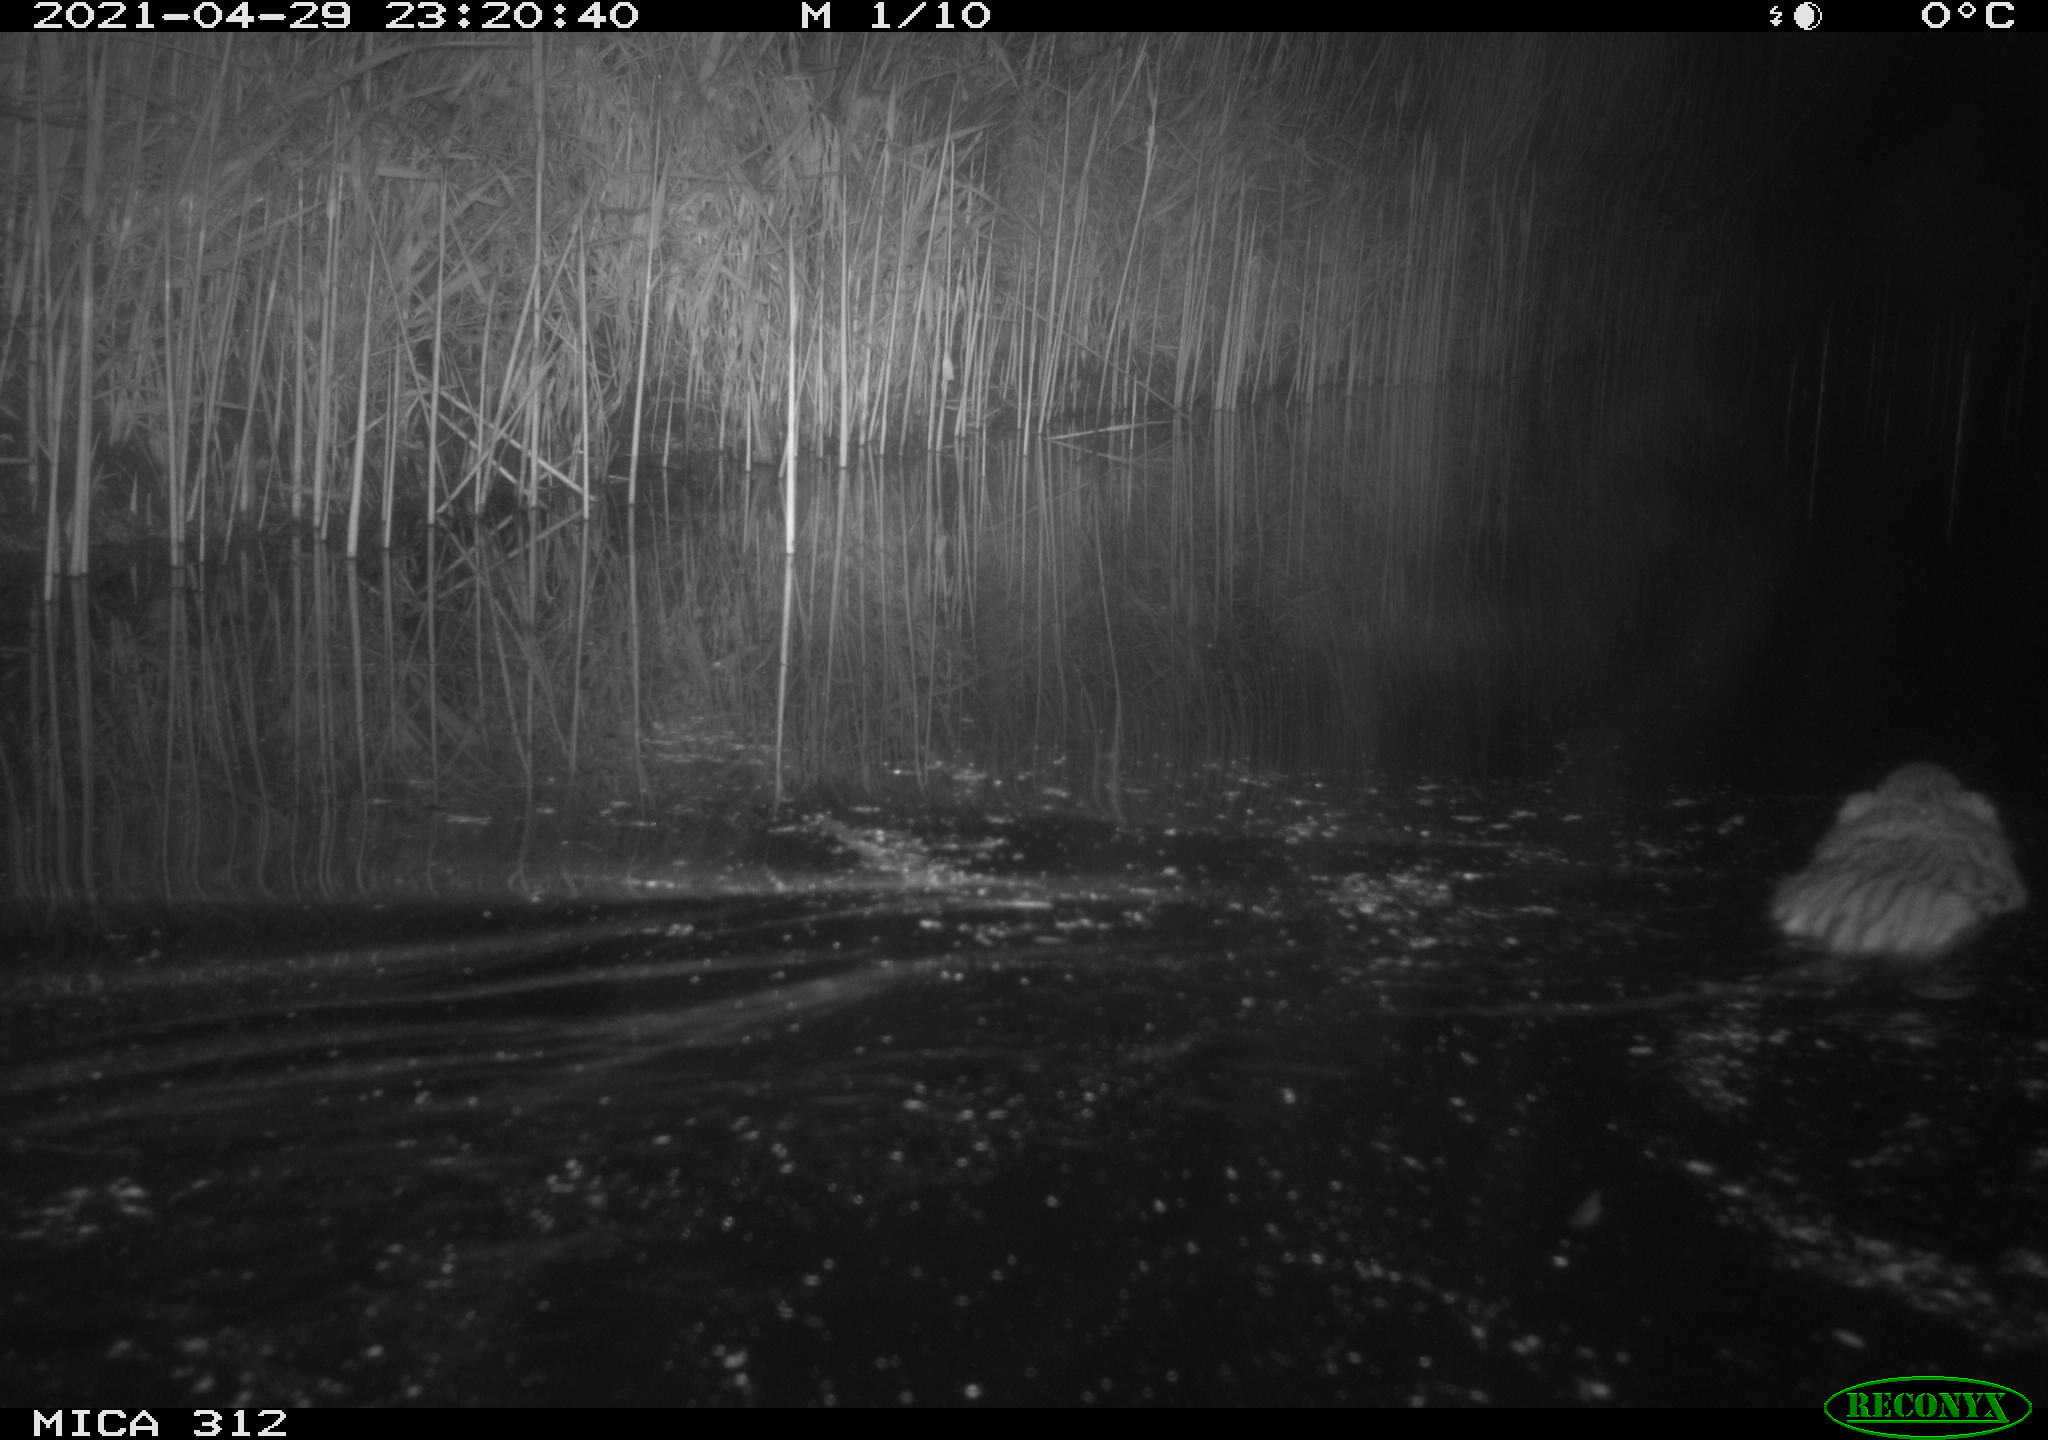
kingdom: Animalia
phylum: Chordata
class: Mammalia
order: Rodentia
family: Cricetidae
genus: Ondatra
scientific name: Ondatra zibethicus
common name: Muskrat
